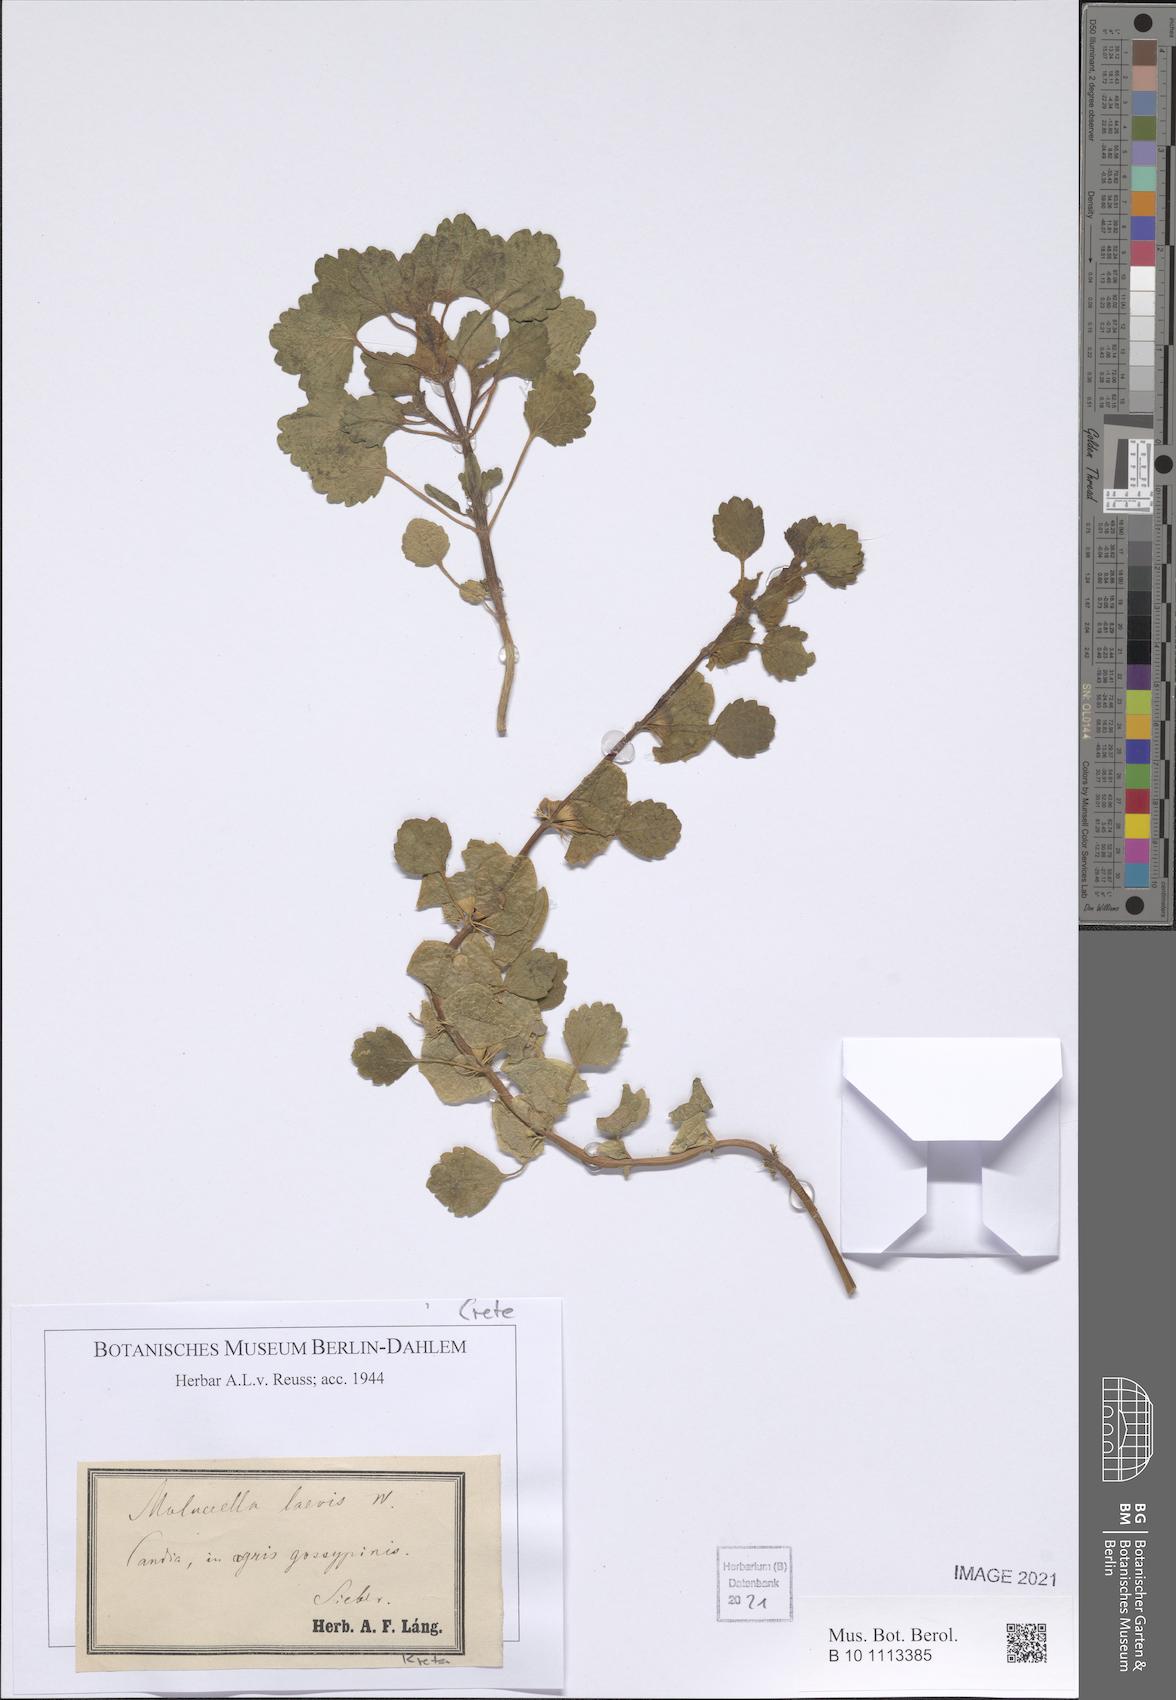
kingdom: Plantae
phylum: Tracheophyta
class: Magnoliopsida
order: Lamiales
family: Lamiaceae
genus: Moluccella
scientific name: Moluccella laevis
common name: Shellflower
